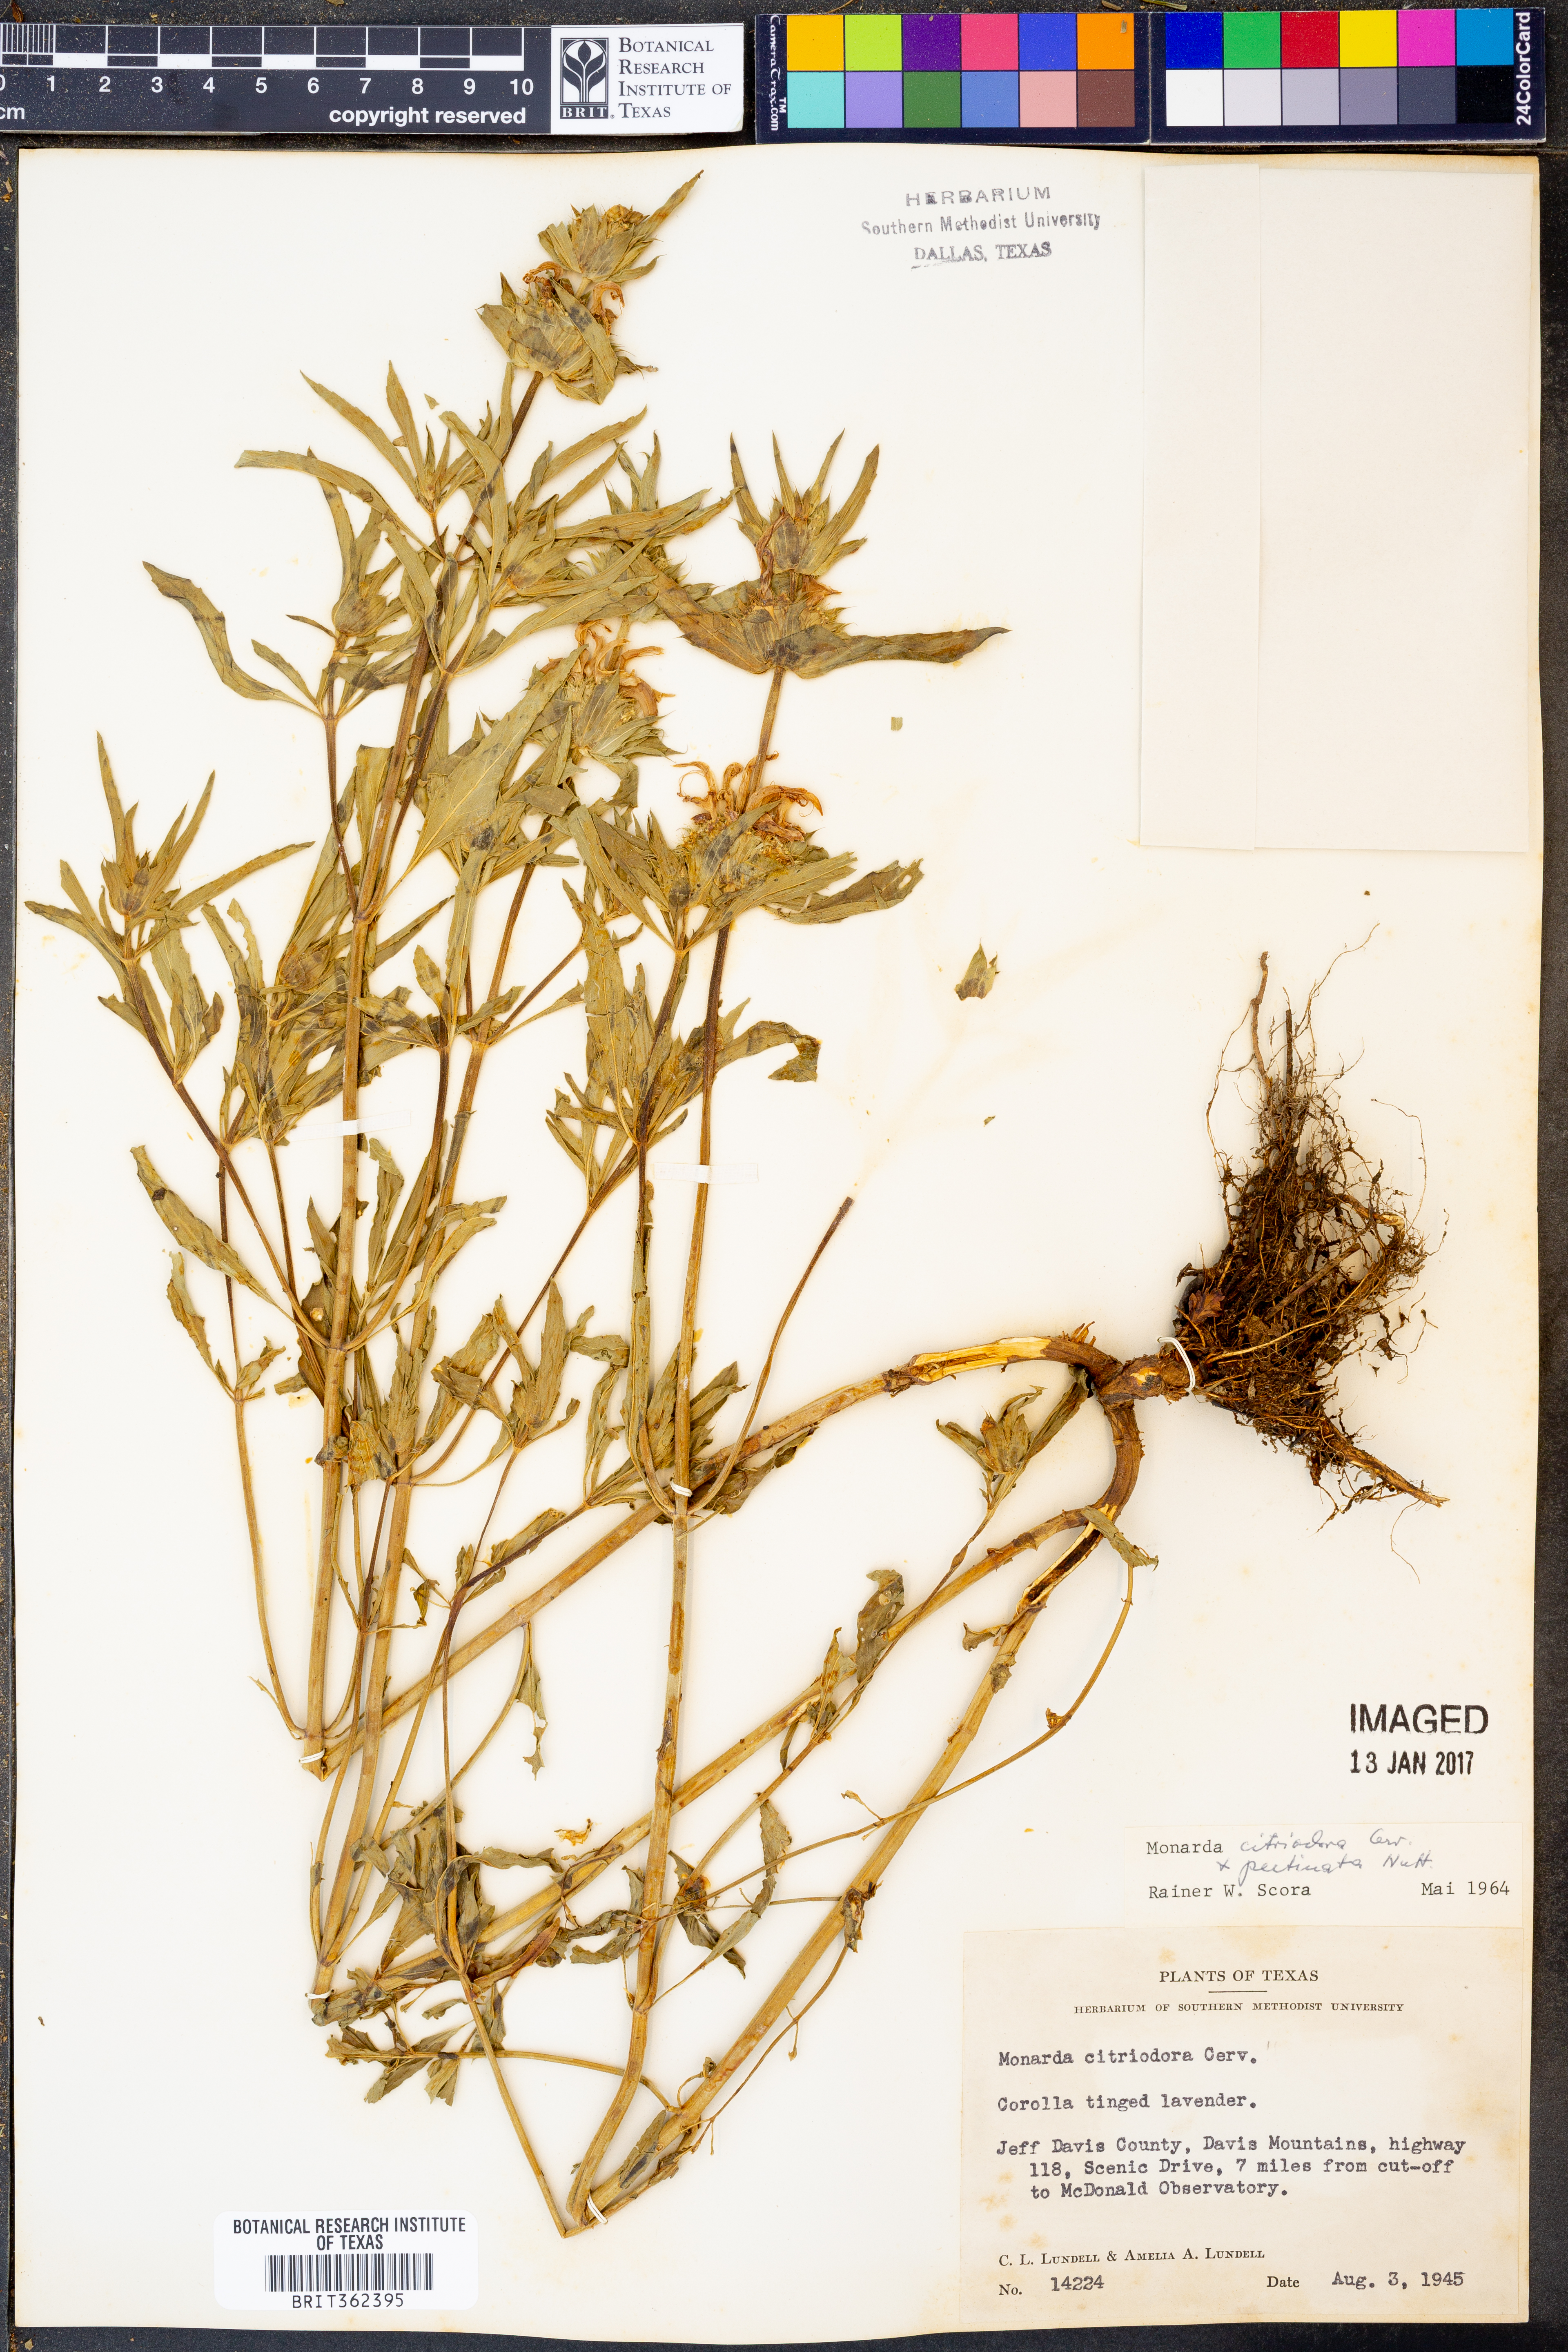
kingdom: Plantae
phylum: Tracheophyta
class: Magnoliopsida
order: Lamiales
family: Lamiaceae
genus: Monarda
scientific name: Monarda citriodora
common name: Lemon beebalm
